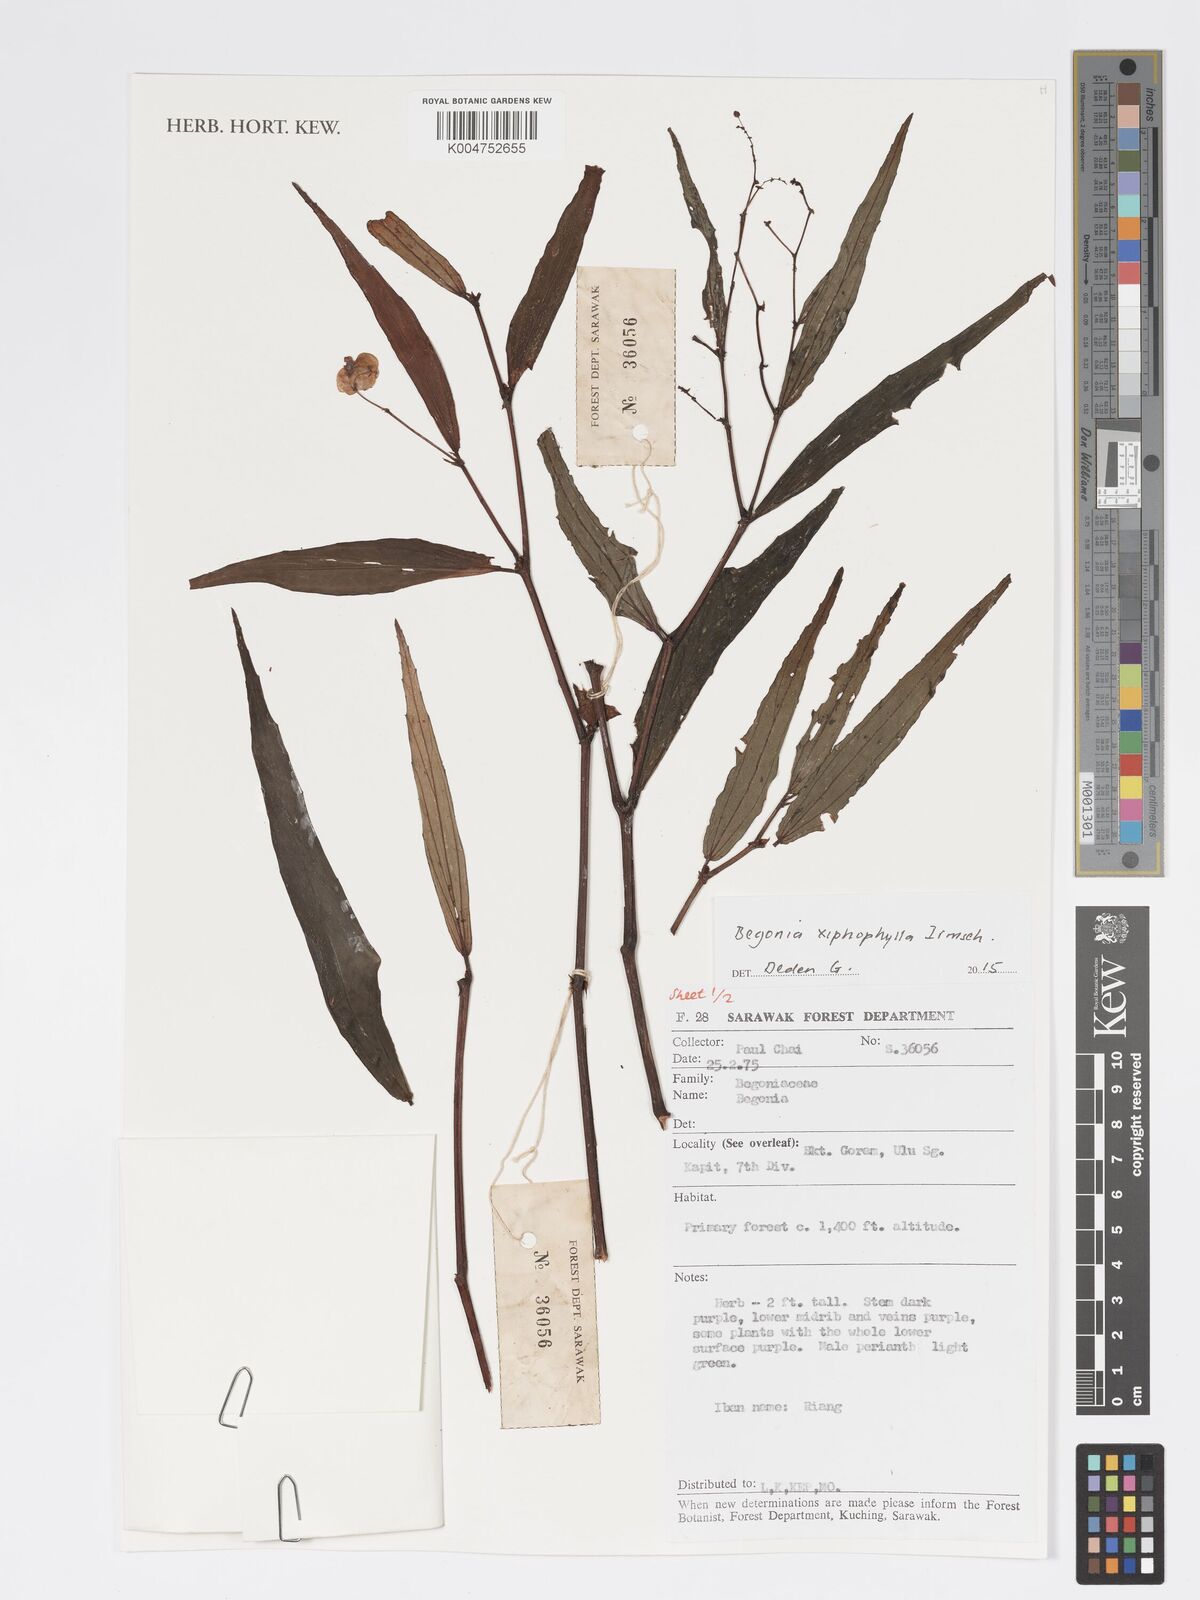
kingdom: Plantae
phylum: Tracheophyta
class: Magnoliopsida
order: Cucurbitales
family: Begoniaceae
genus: Begonia
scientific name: Begonia xiphophylla
